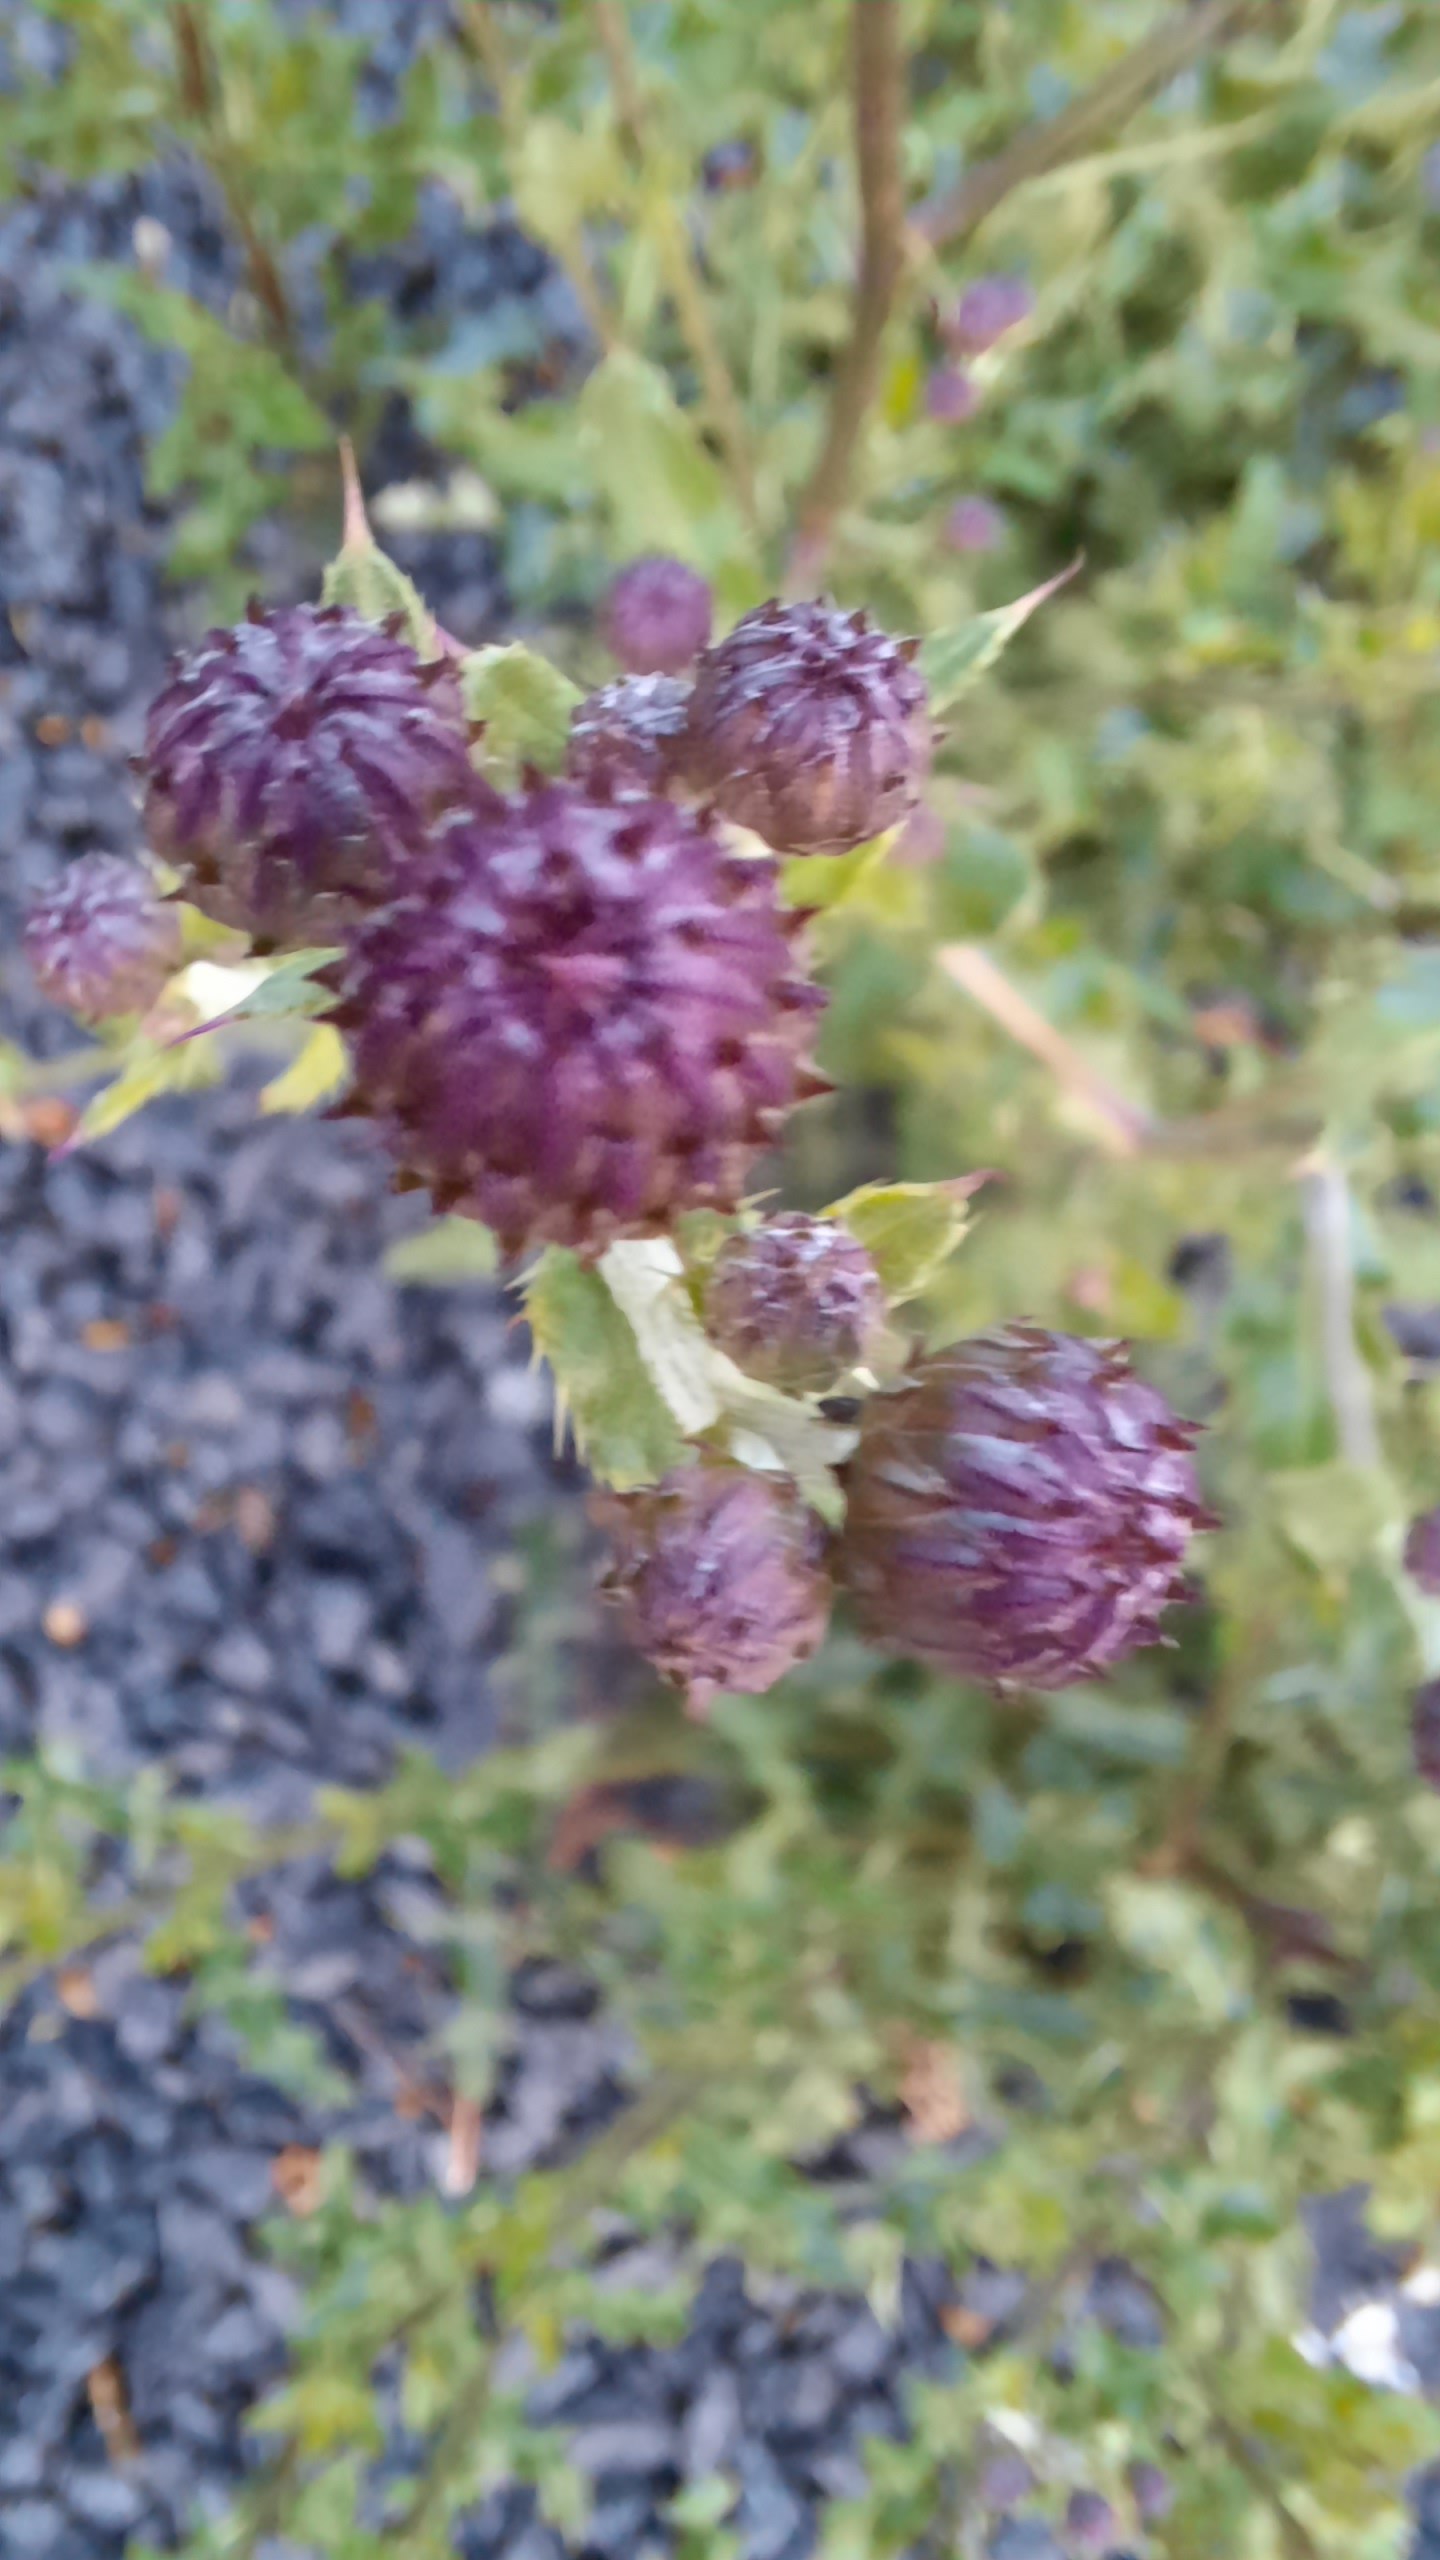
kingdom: Plantae
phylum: Tracheophyta
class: Magnoliopsida
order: Asterales
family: Asteraceae
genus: Cirsium
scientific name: Cirsium arvense
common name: Ager-tidsel
